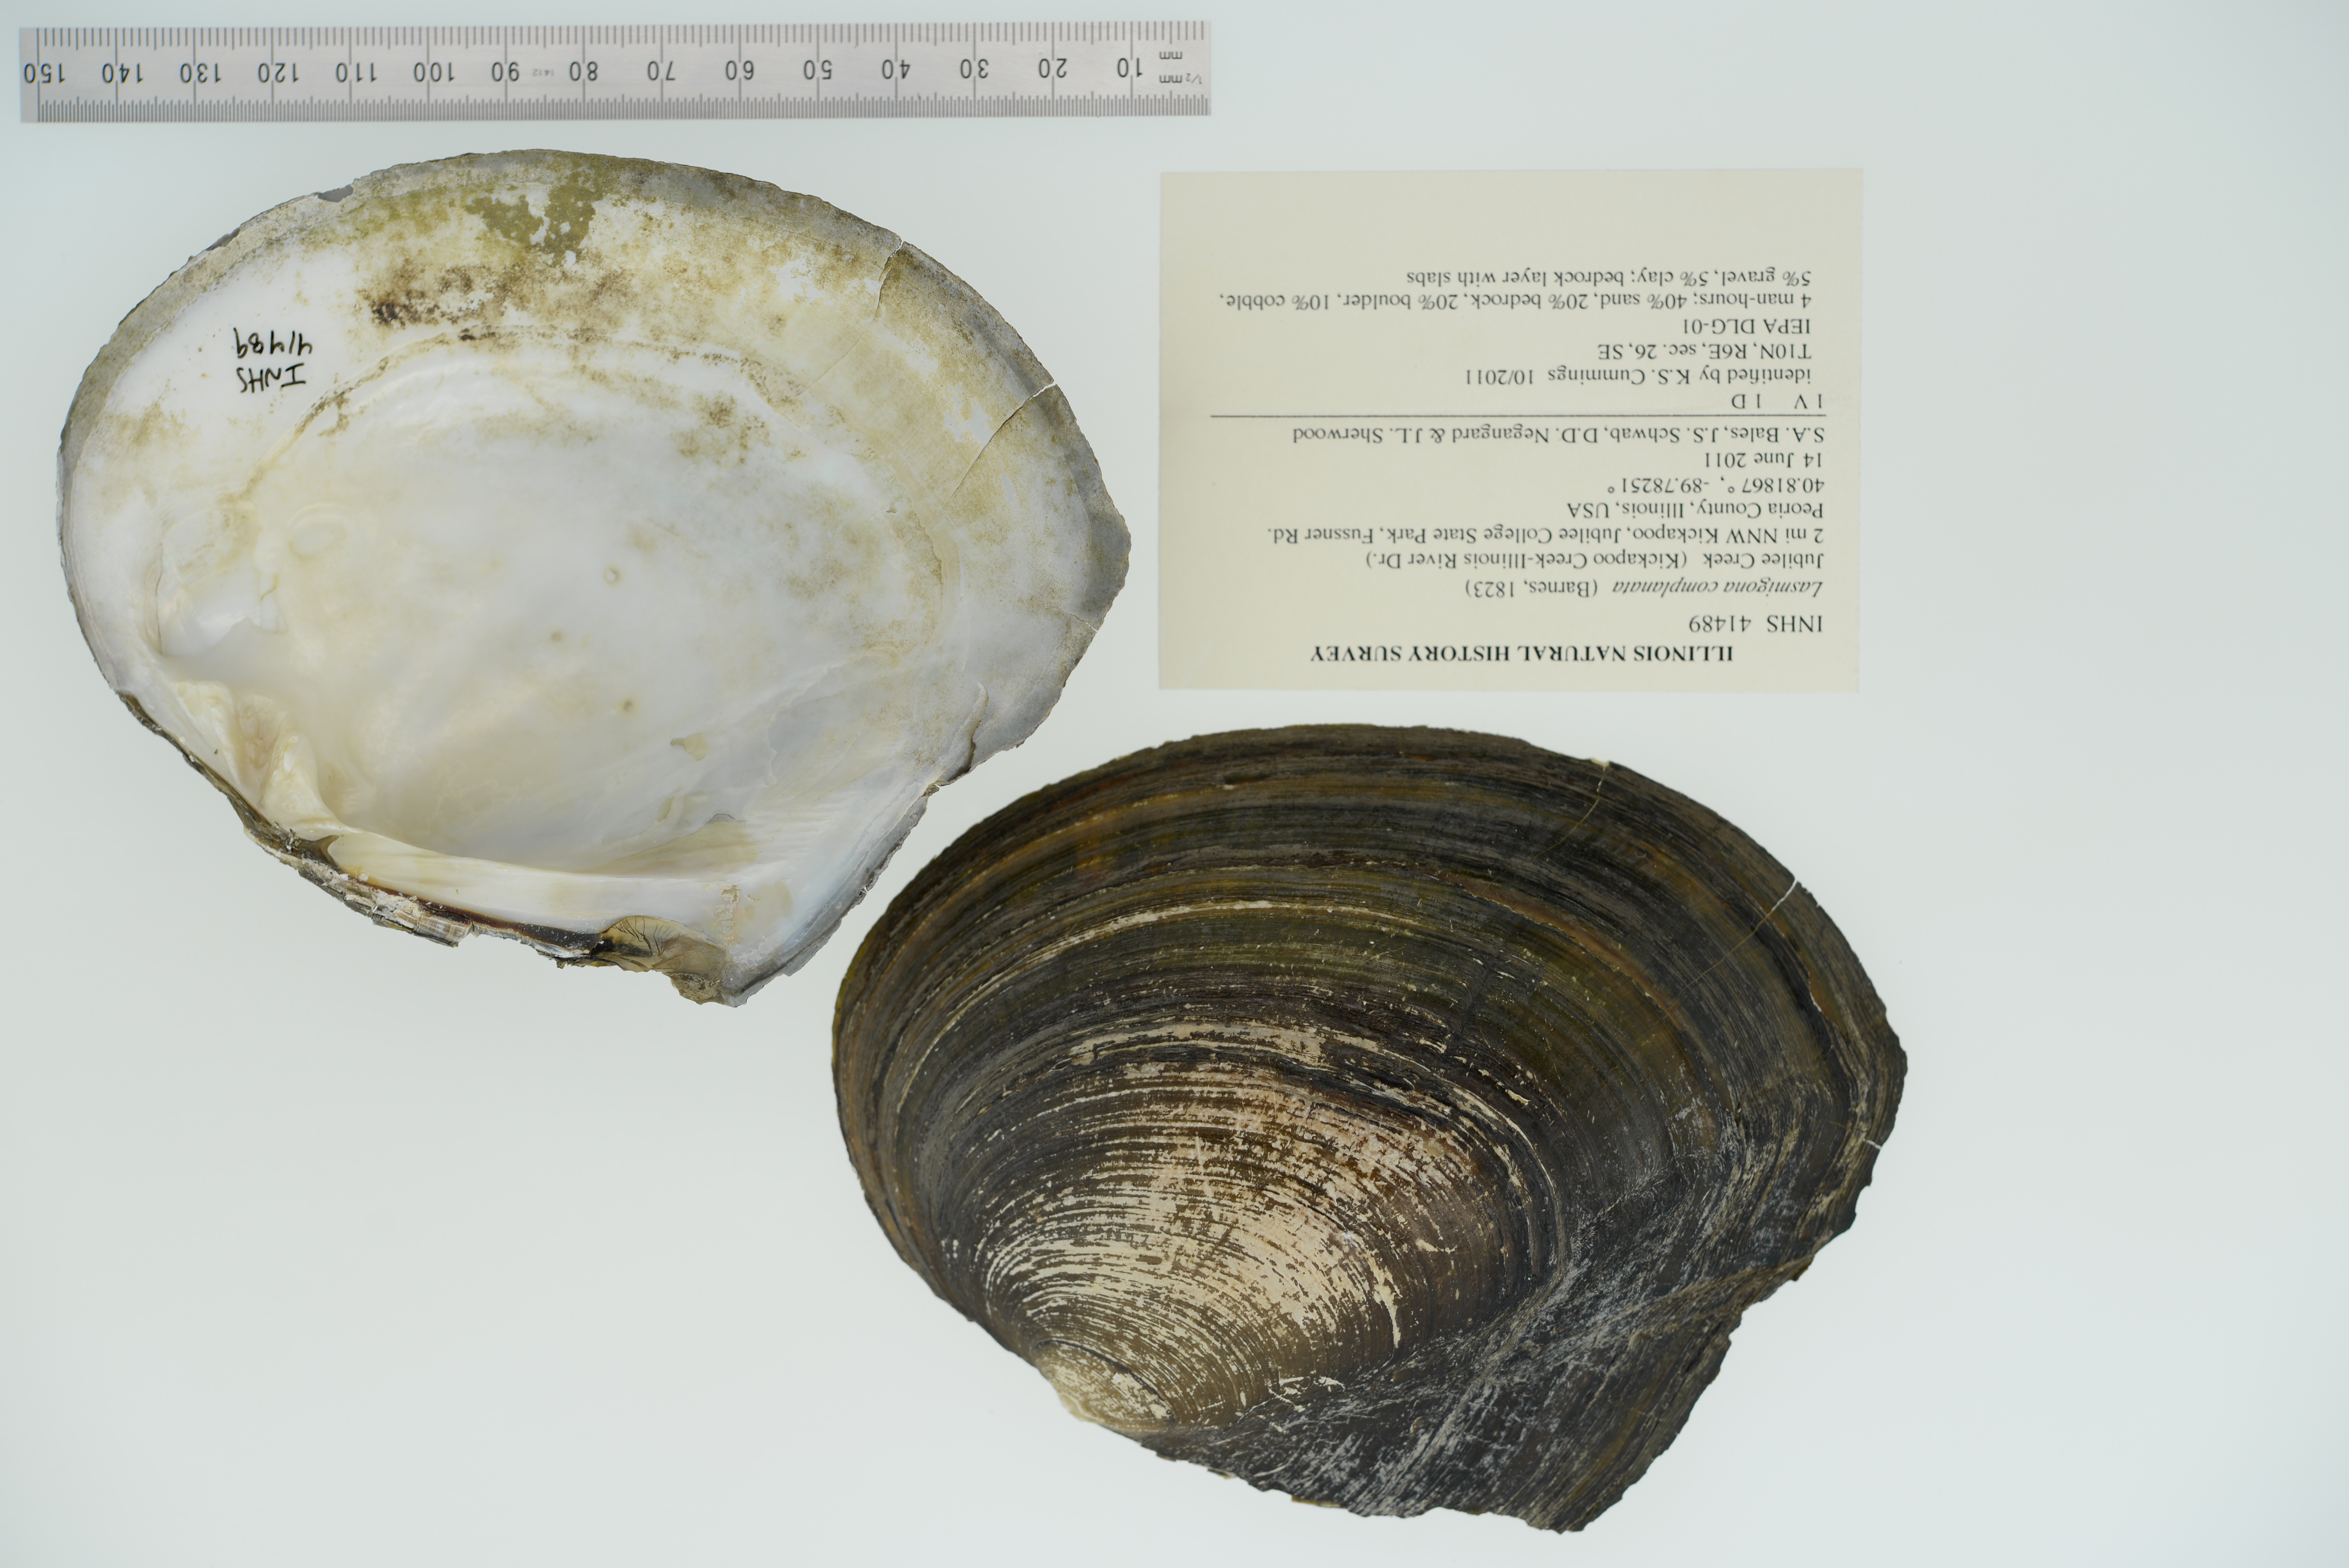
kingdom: Animalia
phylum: Mollusca
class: Bivalvia
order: Unionida
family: Unionidae
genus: Lasmigona
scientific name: Lasmigona complanata
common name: White heelsplitter
